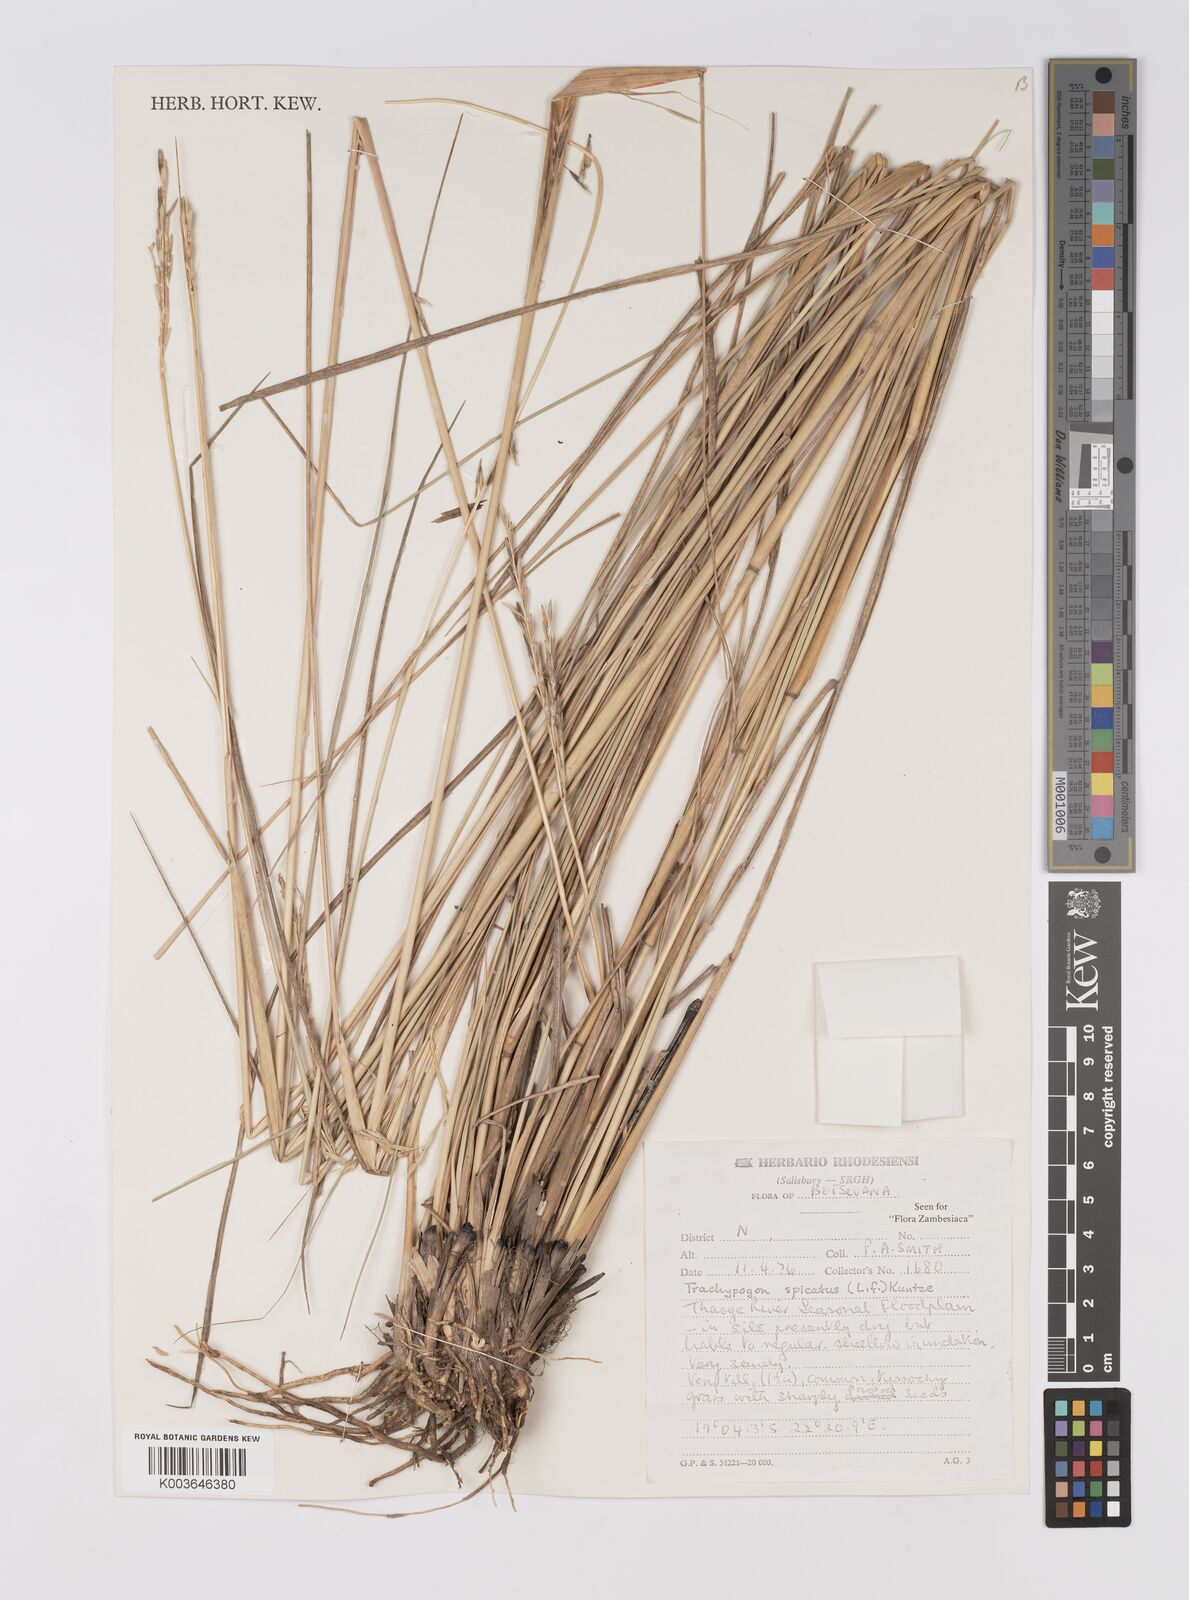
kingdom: Plantae
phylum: Tracheophyta
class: Liliopsida
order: Poales
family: Poaceae
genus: Trachypogon
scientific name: Trachypogon spicatus
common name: Crinkle-awn
